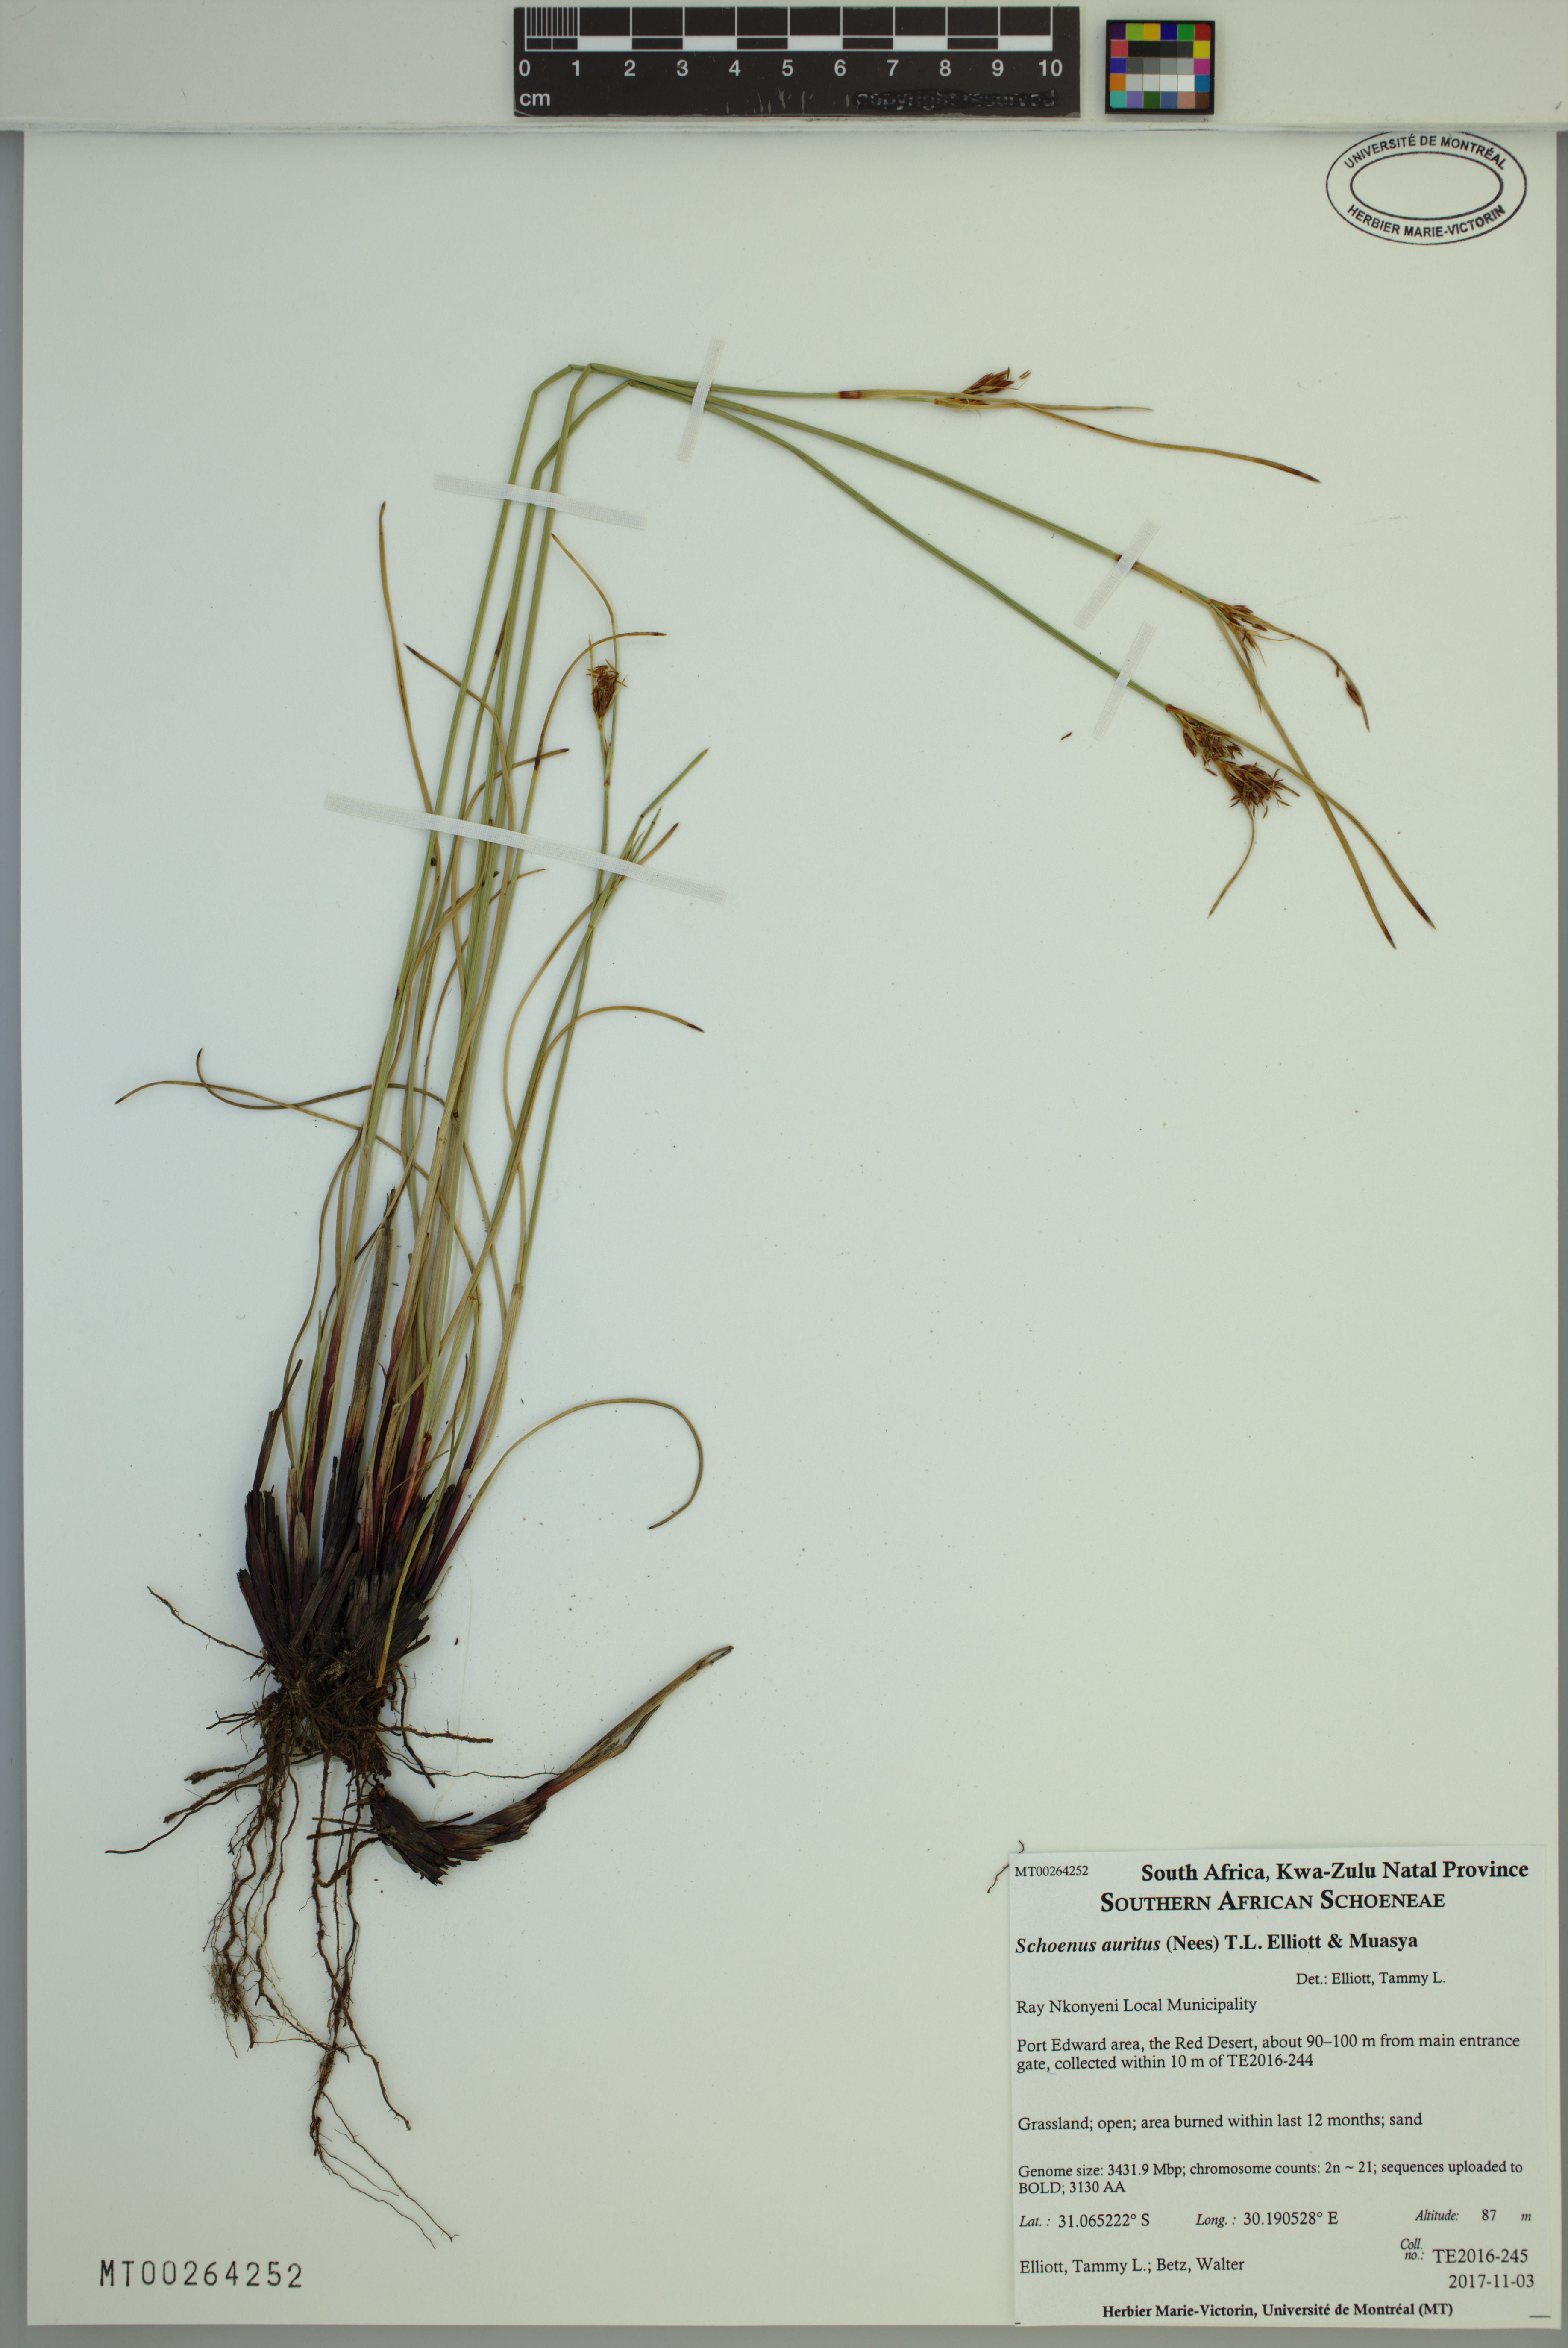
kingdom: Plantae
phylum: Tracheophyta
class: Liliopsida
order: Poales
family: Cyperaceae
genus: Schoenus
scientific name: Schoenus auritus
